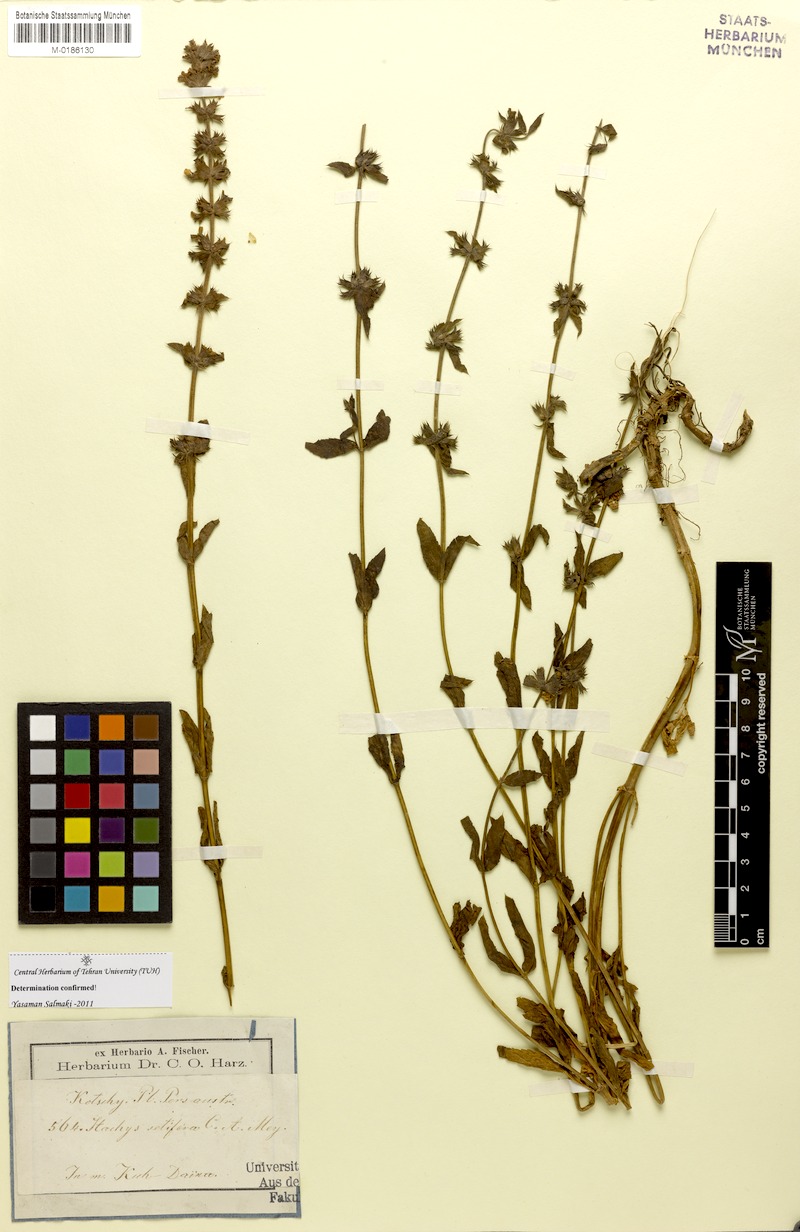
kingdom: Plantae
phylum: Tracheophyta
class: Magnoliopsida
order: Lamiales
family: Lamiaceae
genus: Stachys
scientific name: Stachys setifera
